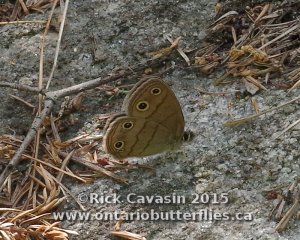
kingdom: Animalia
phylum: Arthropoda
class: Insecta
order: Lepidoptera
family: Nymphalidae
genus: Euptychia
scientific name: Euptychia cymela
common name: Little Wood Satyr
